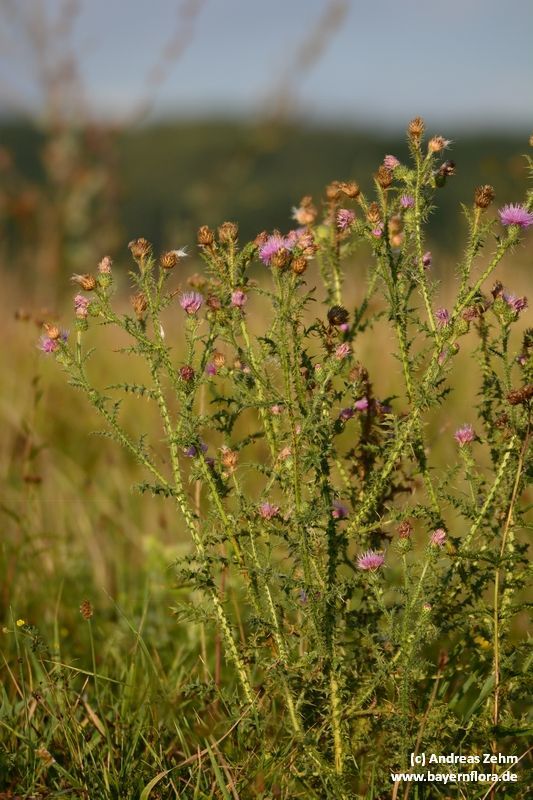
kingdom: Plantae
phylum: Tracheophyta
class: Magnoliopsida
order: Asterales
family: Asteraceae
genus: Carduus
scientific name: Carduus acanthoides
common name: Plumeless thistle
